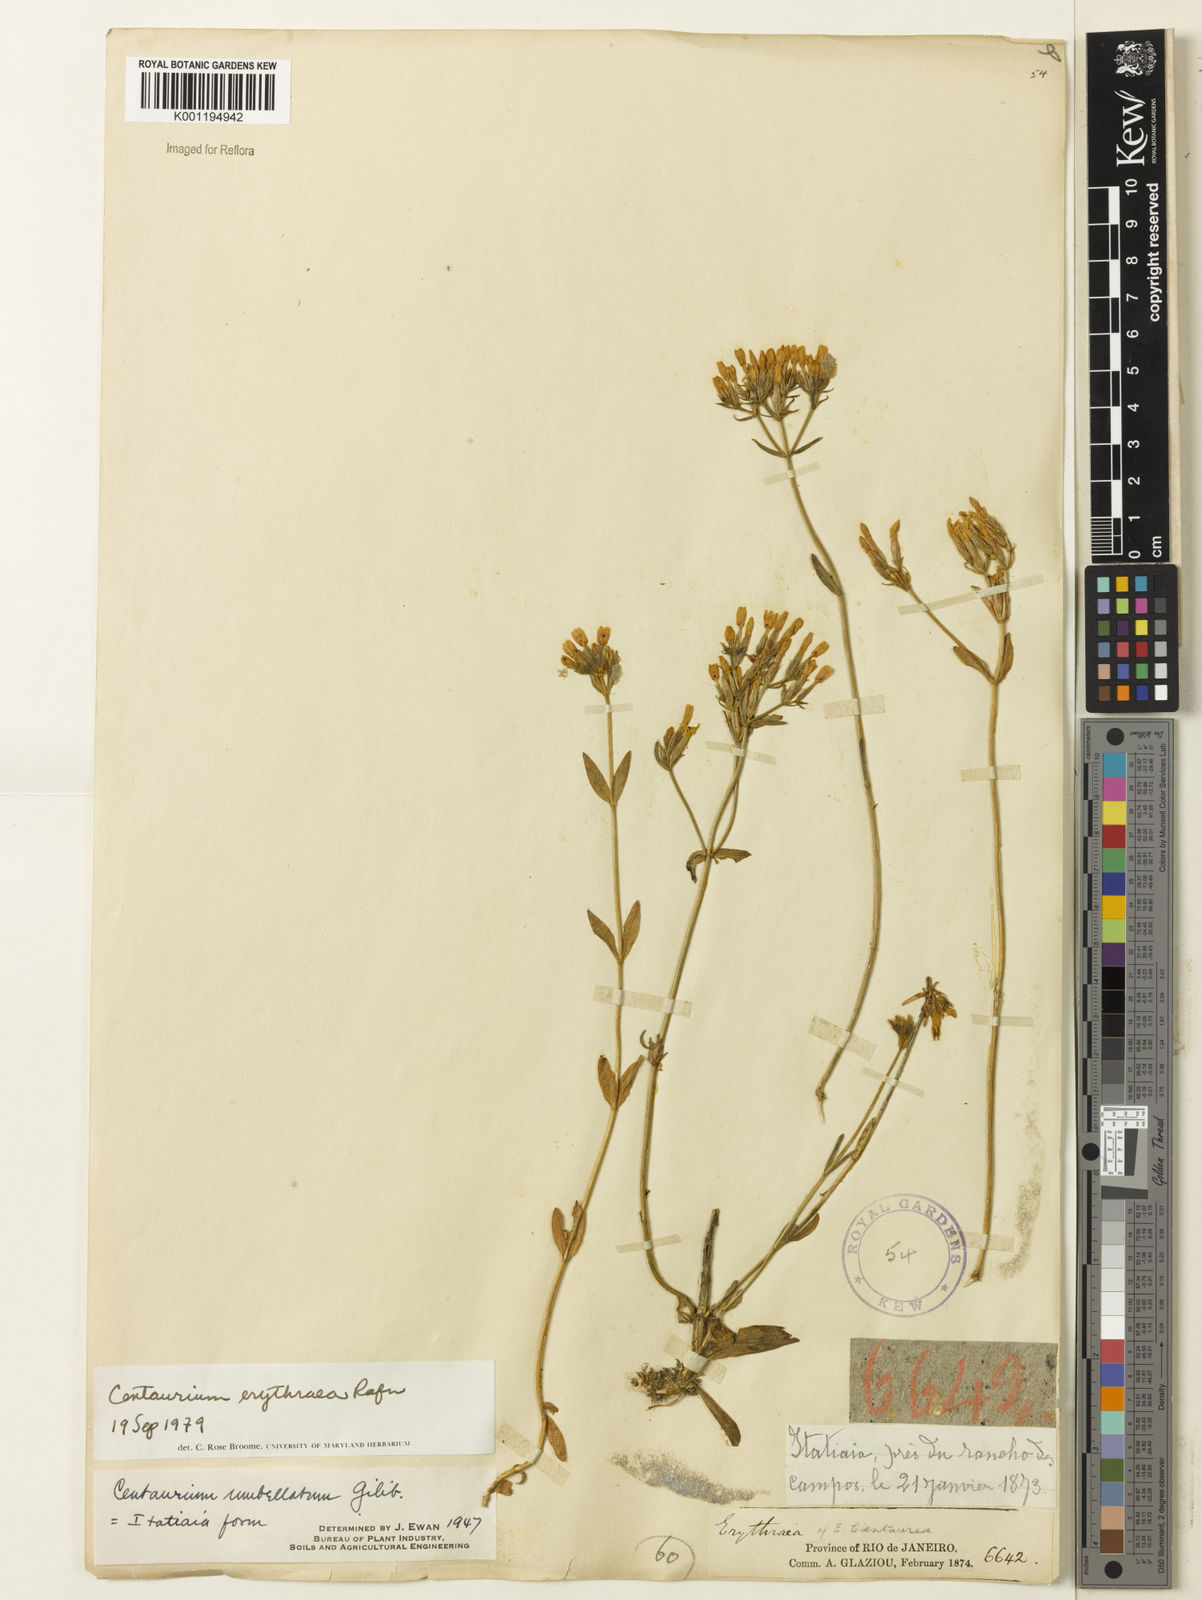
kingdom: Plantae
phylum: Tracheophyta
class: Magnoliopsida
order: Gentianales
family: Gentianaceae
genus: Centaurium
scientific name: Centaurium
